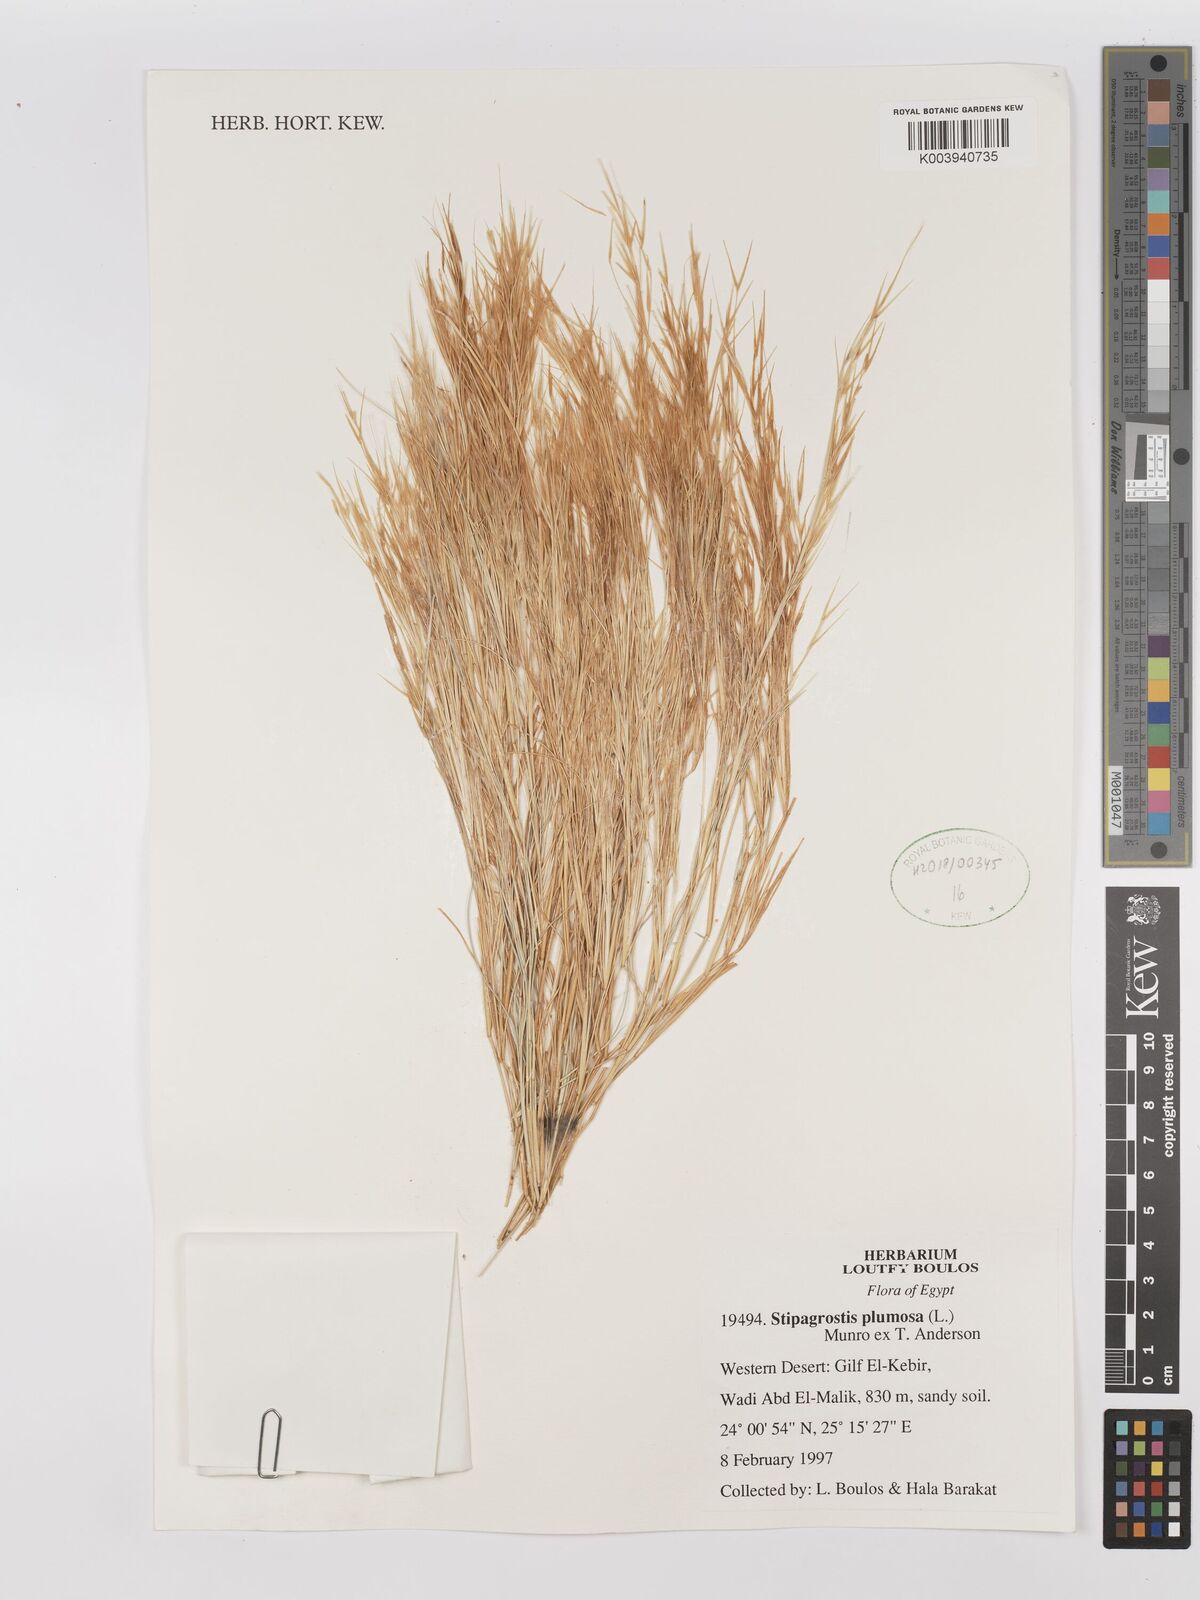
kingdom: Plantae
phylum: Tracheophyta
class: Liliopsida
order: Poales
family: Poaceae
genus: Stipagrostis
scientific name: Stipagrostis plumosa
